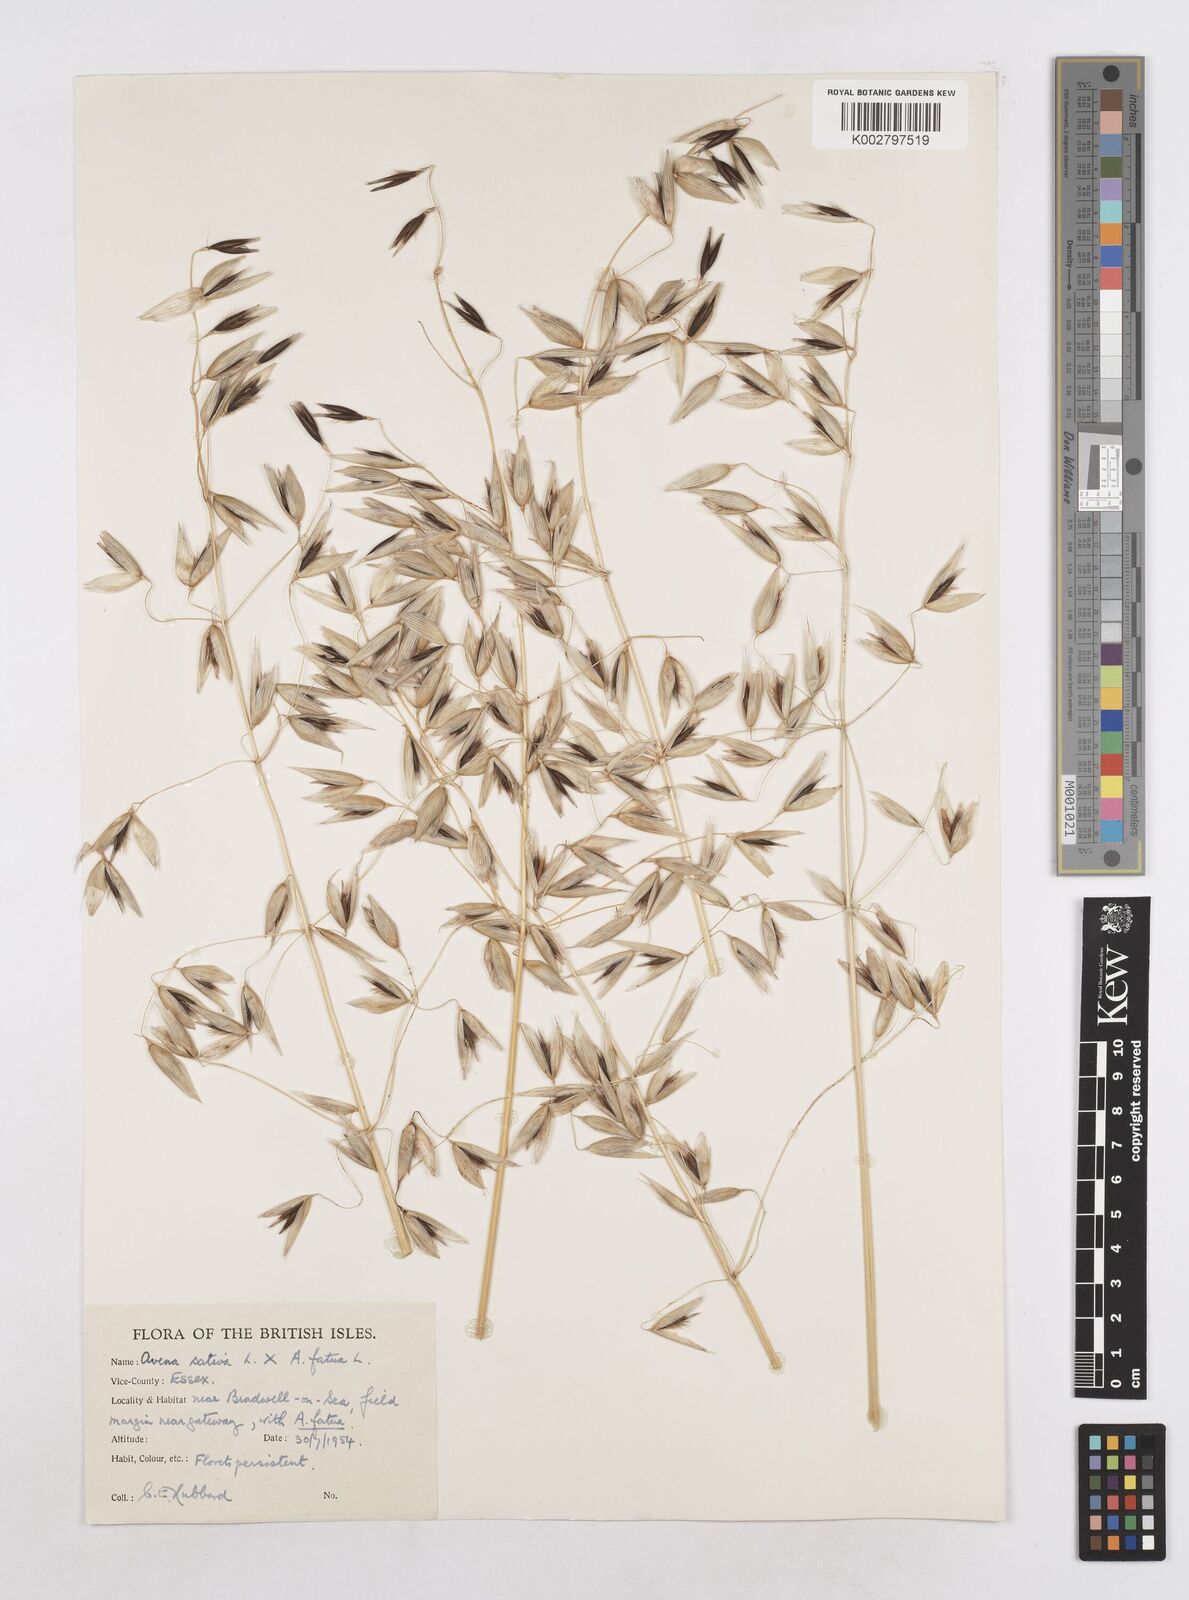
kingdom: Plantae
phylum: Tracheophyta
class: Liliopsida
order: Poales
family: Poaceae
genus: Avena
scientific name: Avena fatua
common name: Wild oat
